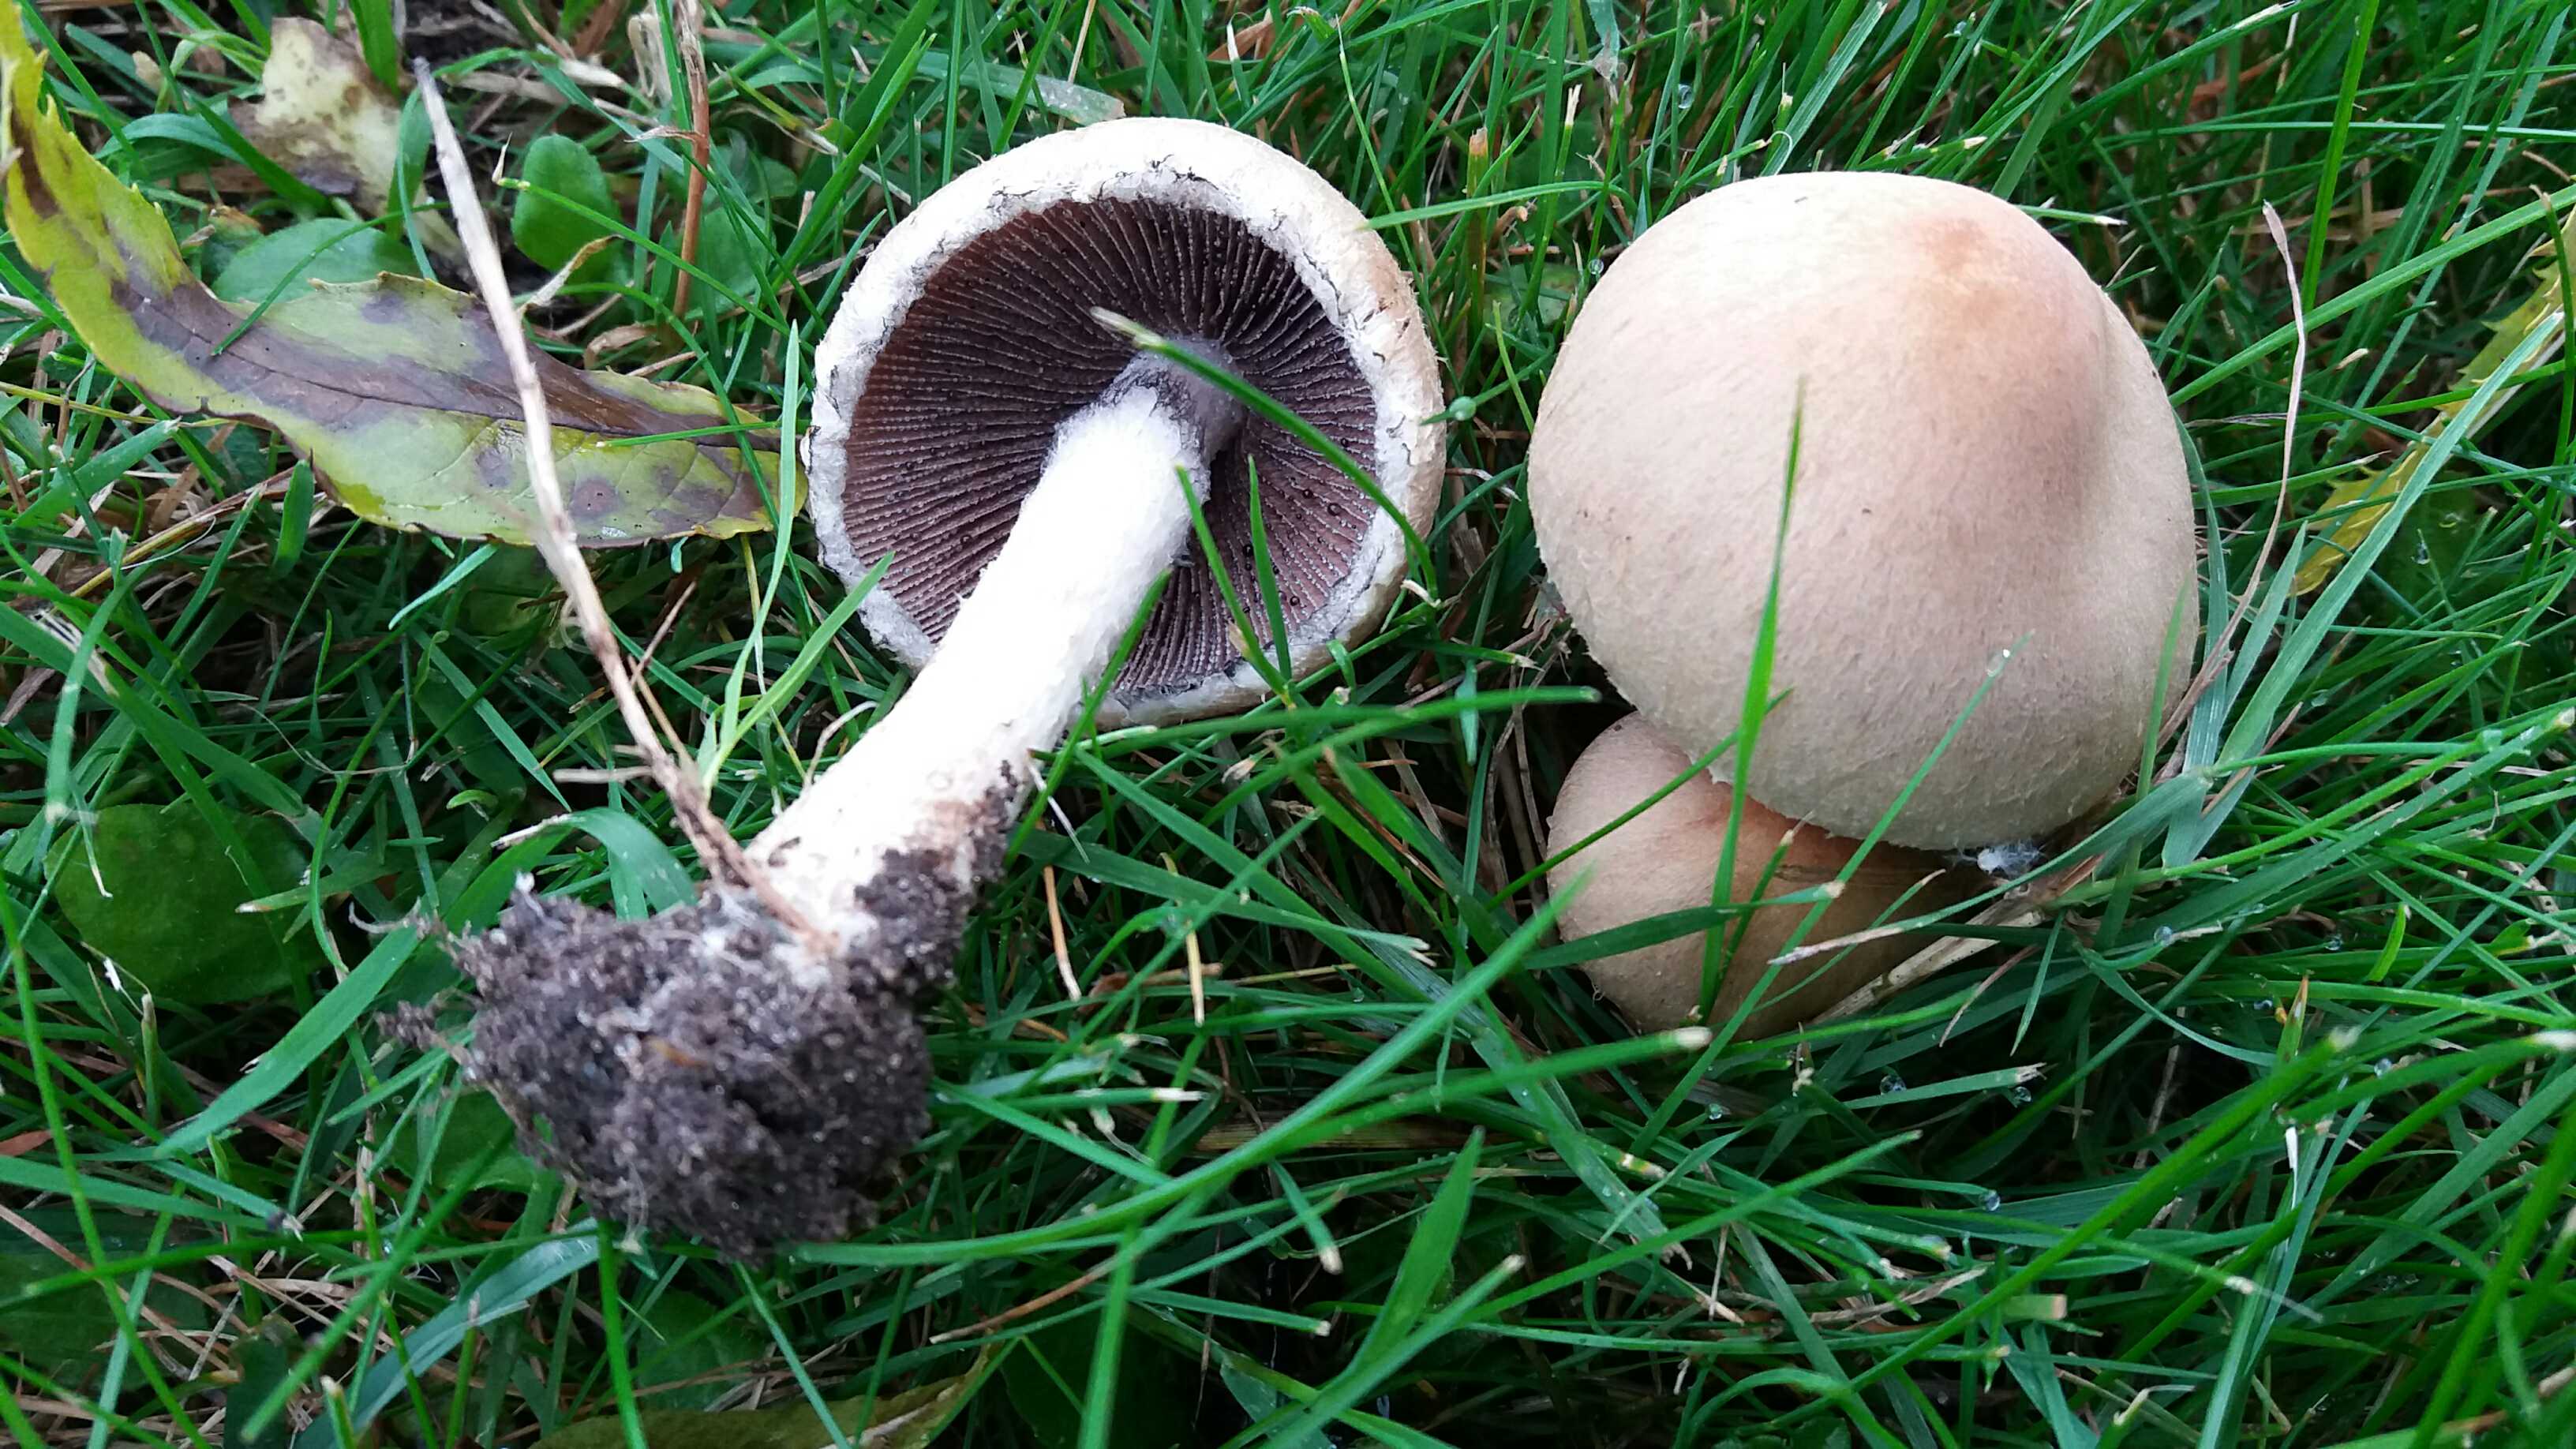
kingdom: Fungi
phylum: Basidiomycota
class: Agaricomycetes
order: Agaricales
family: Psathyrellaceae
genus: Lacrymaria
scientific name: Lacrymaria lacrymabunda
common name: grædende mørkhat
